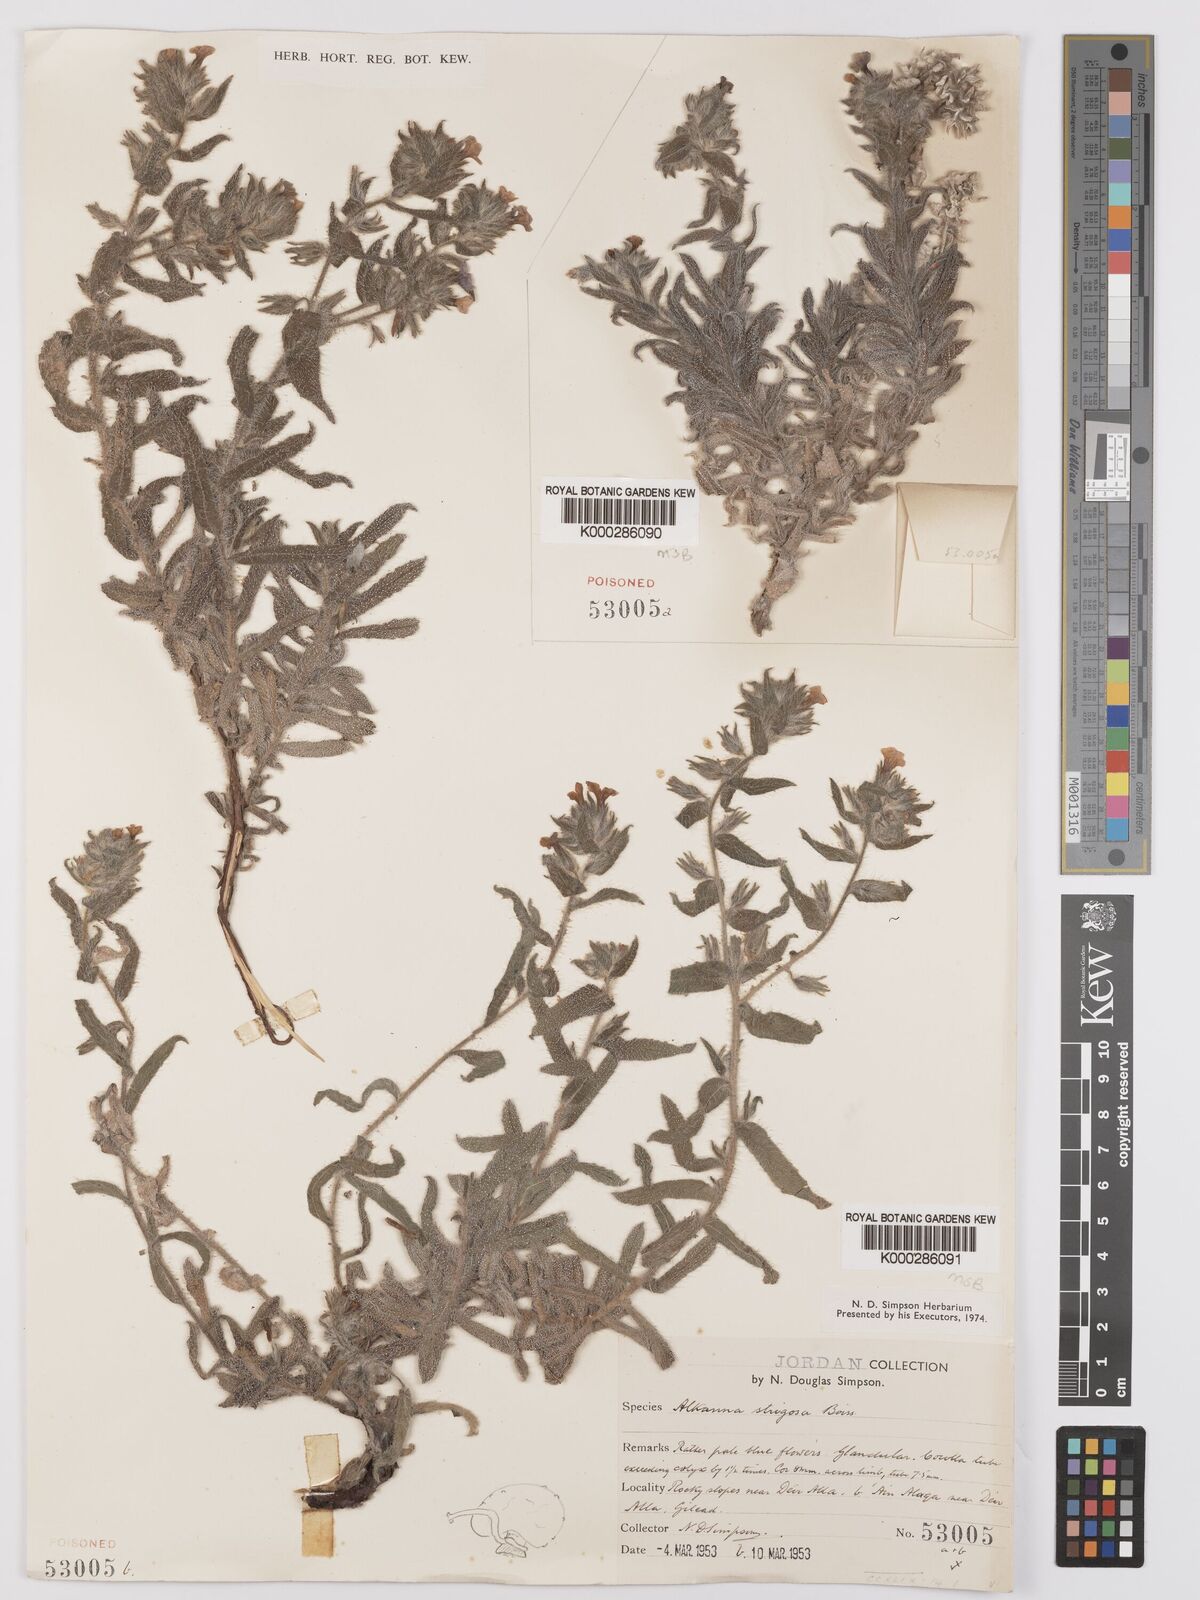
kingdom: Plantae
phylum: Tracheophyta
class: Magnoliopsida
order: Boraginales
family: Boraginaceae
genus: Alkanna
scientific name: Alkanna strigosa
